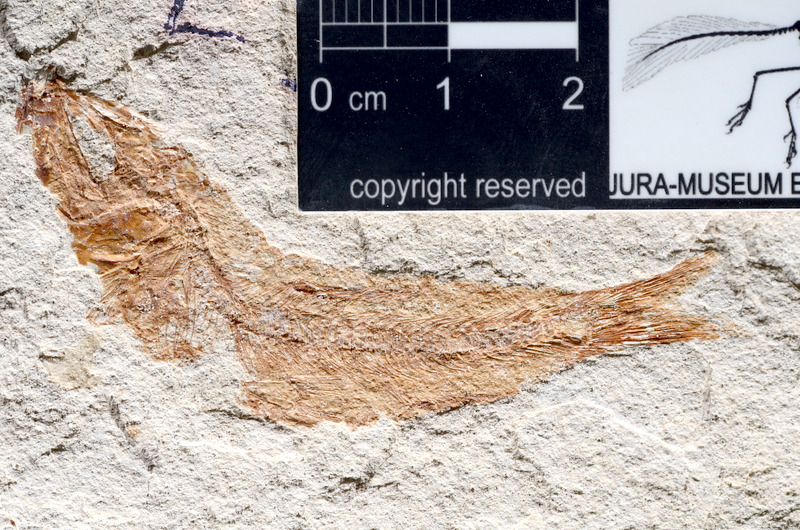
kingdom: Animalia
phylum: Chordata
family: Ascalaboidae
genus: Tharsis
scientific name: Tharsis dubius
